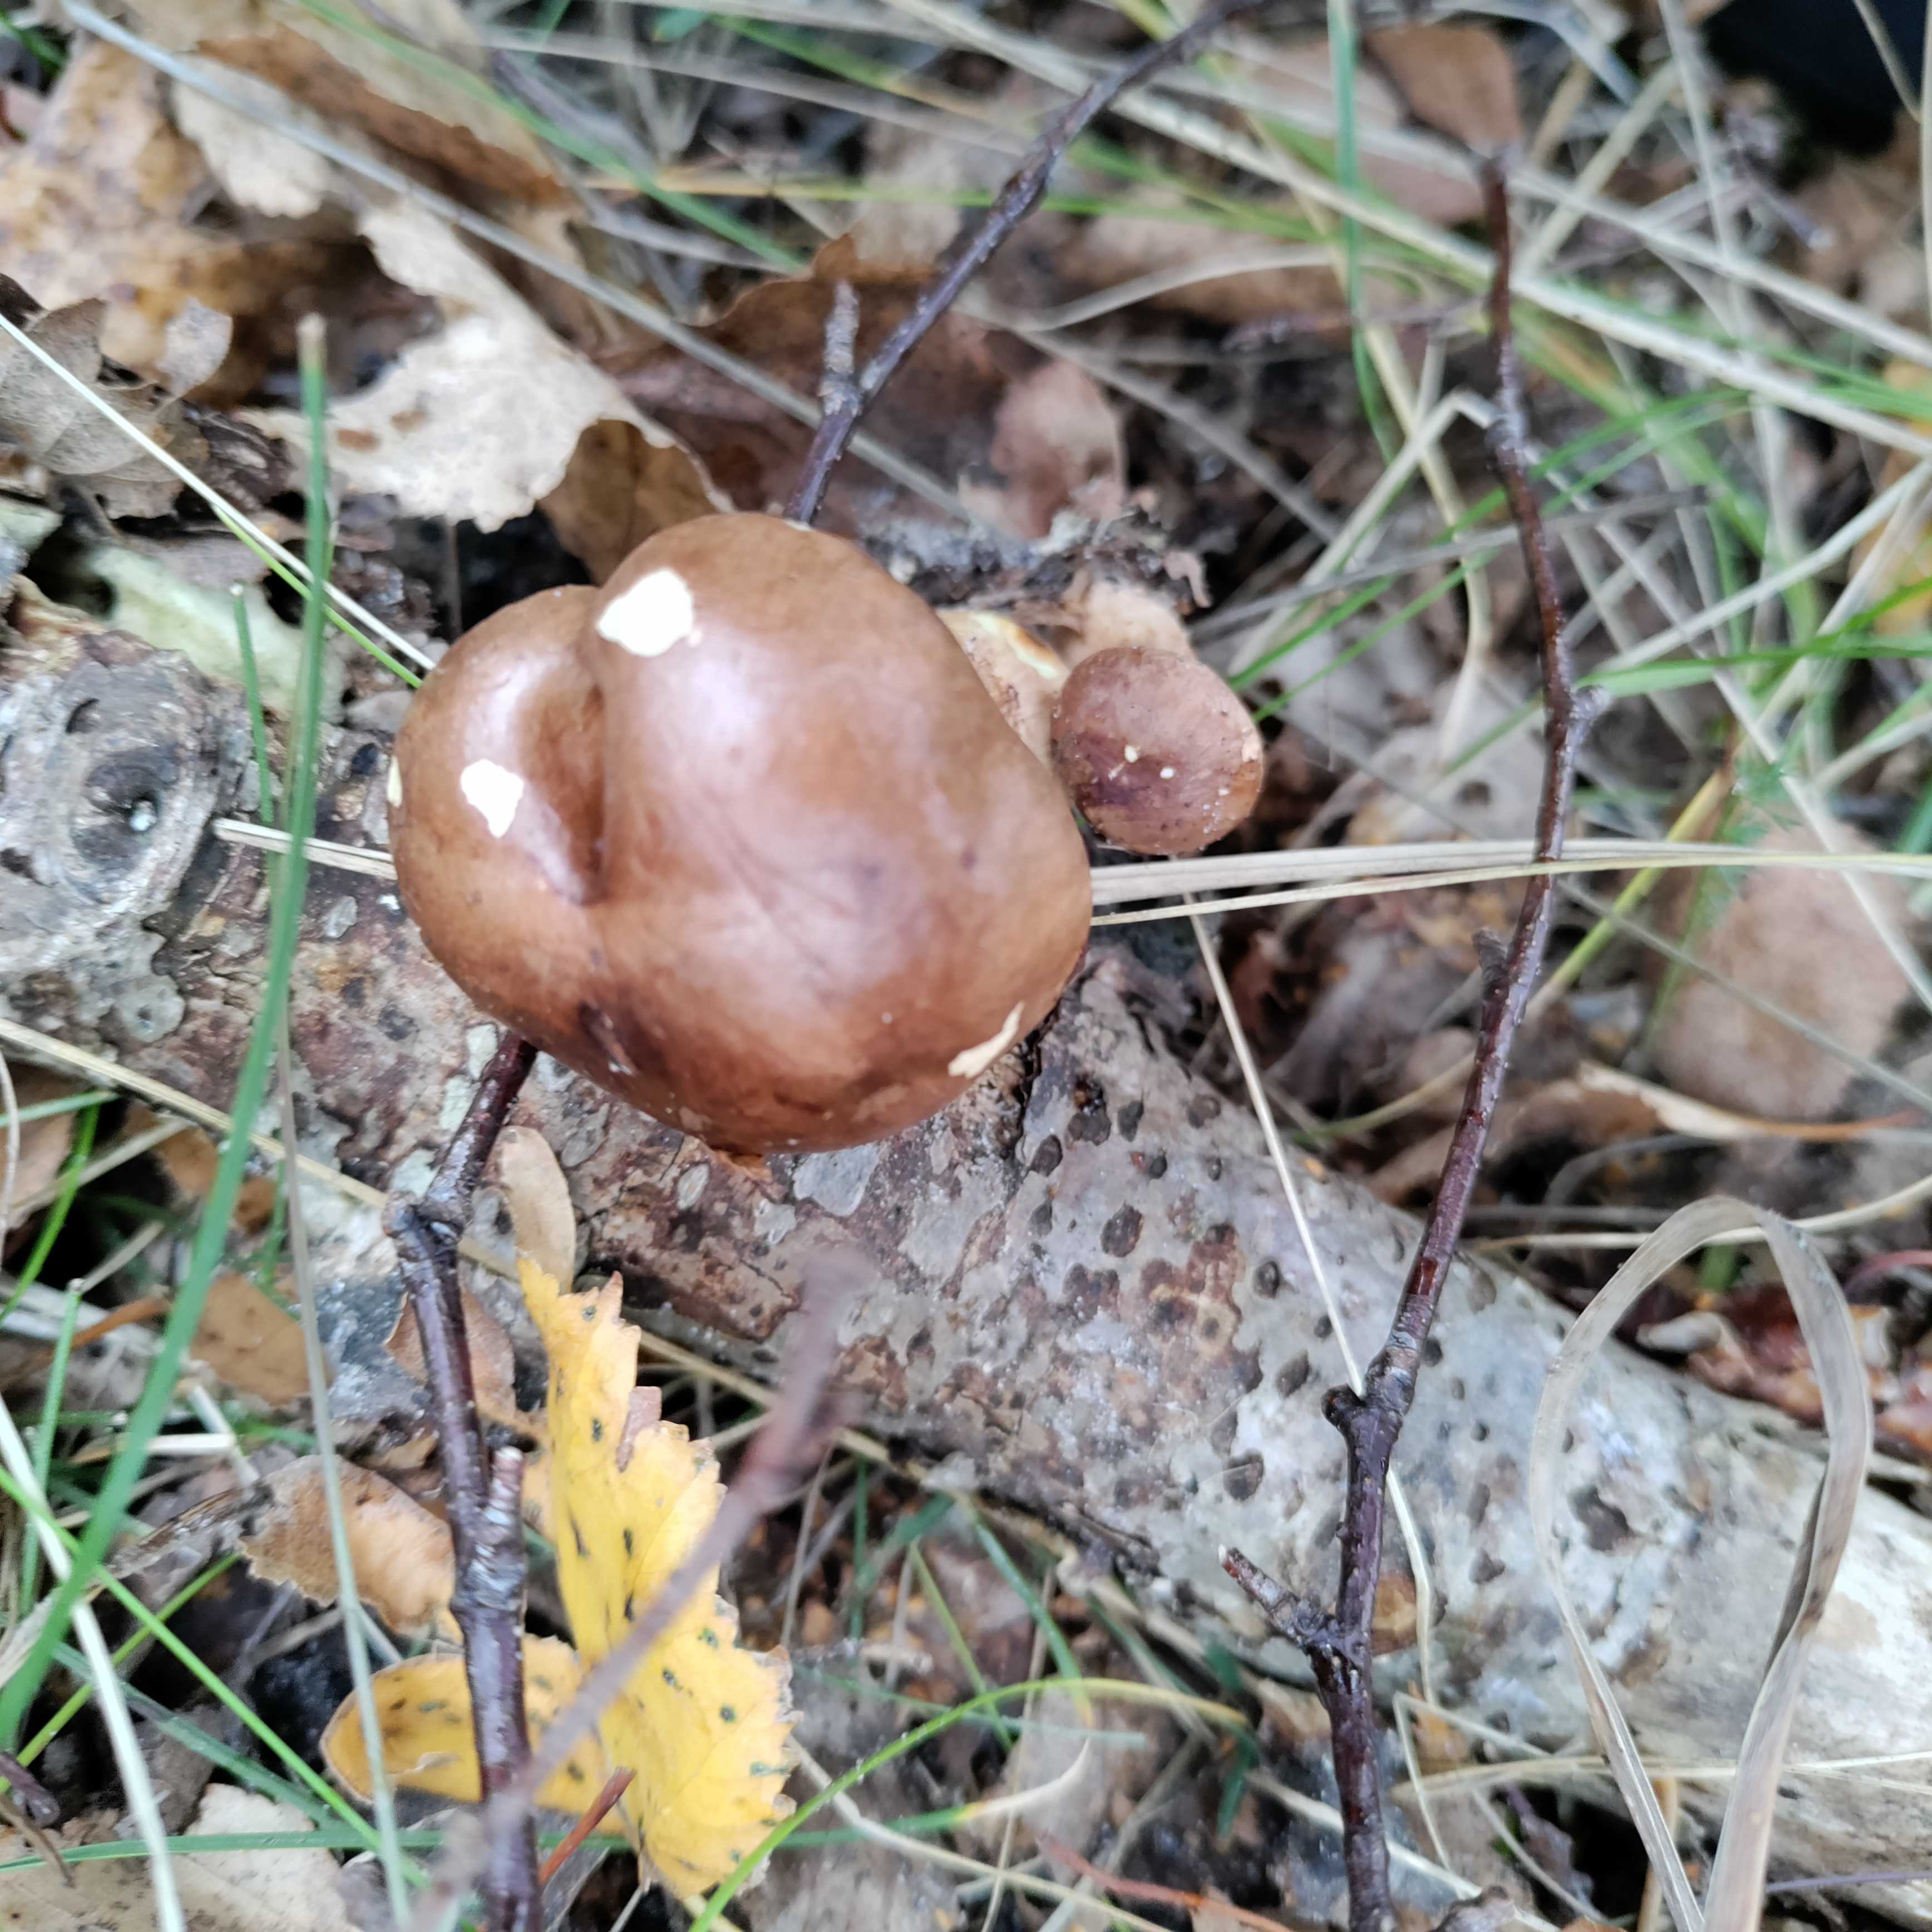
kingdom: Fungi
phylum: Basidiomycota
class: Agaricomycetes
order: Agaricales
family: Tricholomataceae
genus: Tricholoma
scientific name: Tricholoma fulvum
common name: birke-ridderhat
